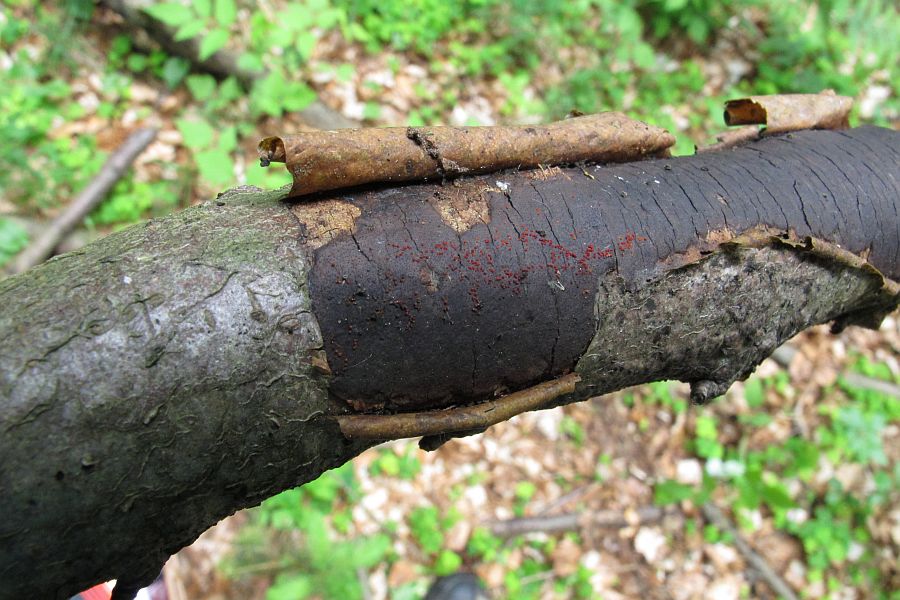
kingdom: Fungi
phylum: Ascomycota
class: Sordariomycetes
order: Hypocreales
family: Nectriaceae
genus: Dialonectria
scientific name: Dialonectria episphaeria
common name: kulskorpe-cinnobersvamp
